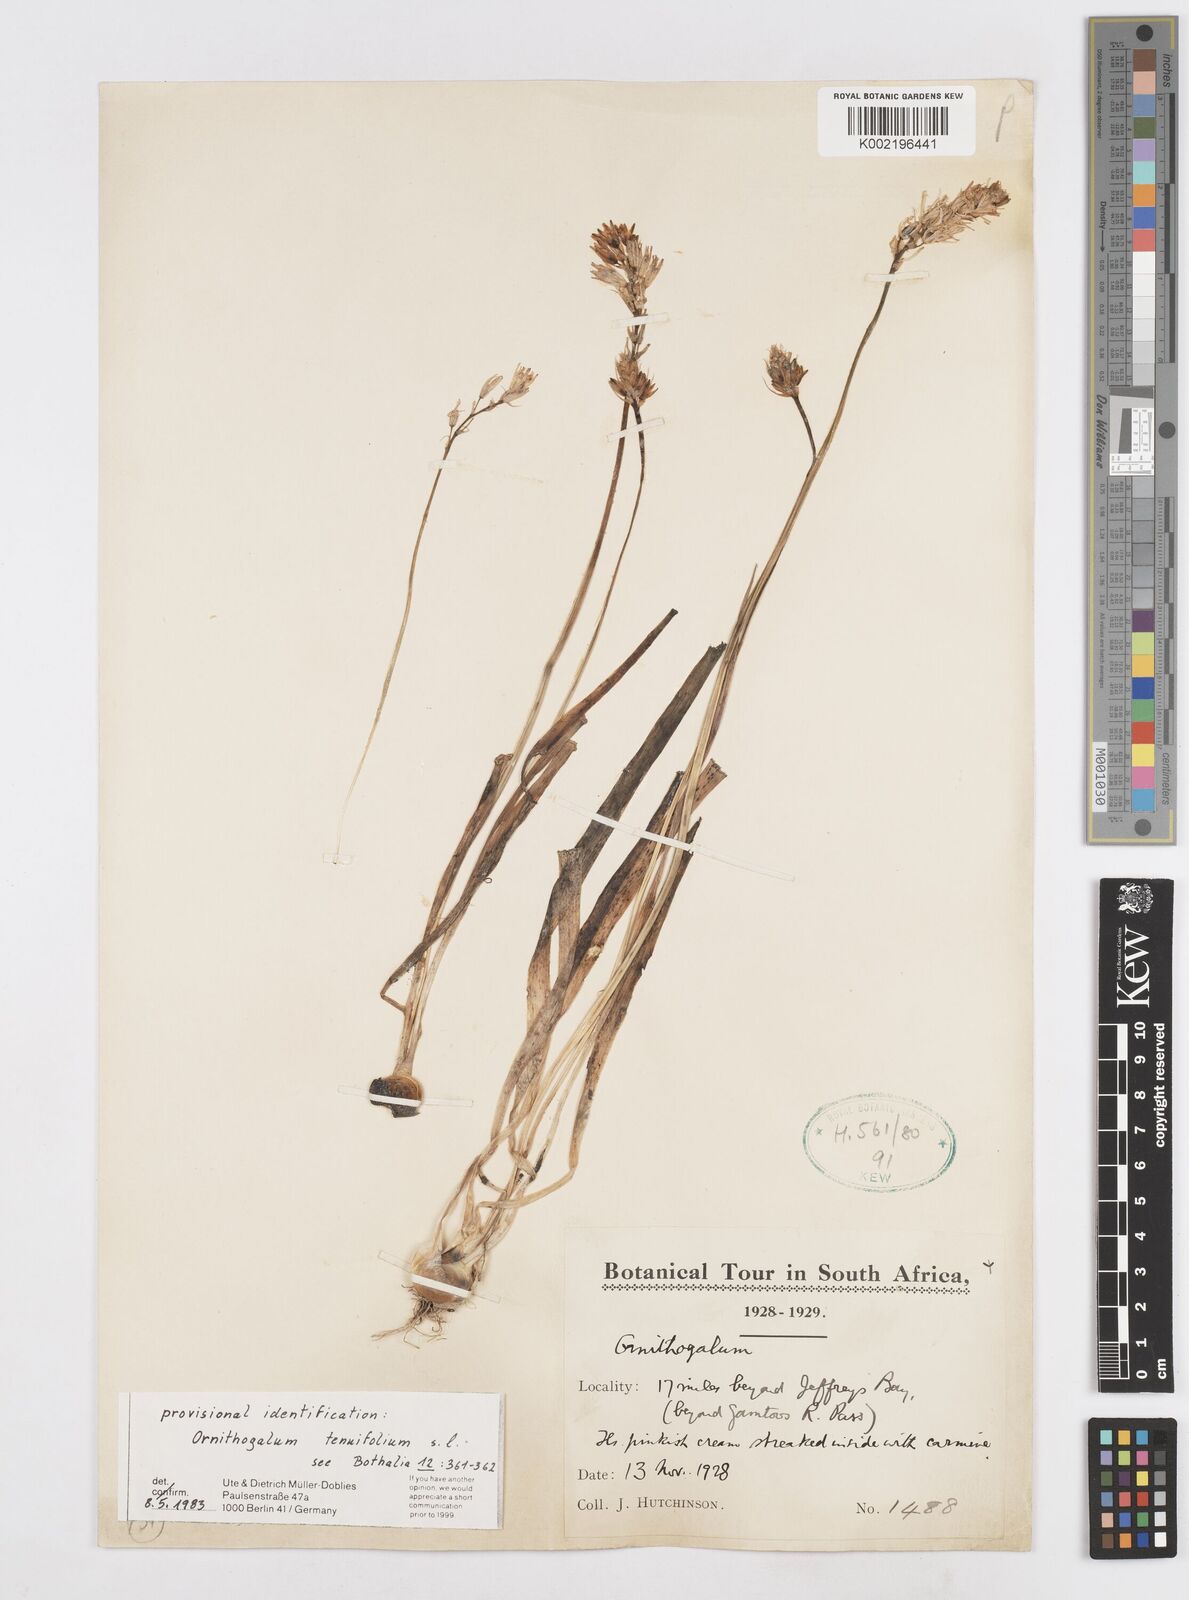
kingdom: Plantae
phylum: Tracheophyta
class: Liliopsida
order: Asparagales
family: Asparagaceae
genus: Albuca
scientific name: Albuca virens
